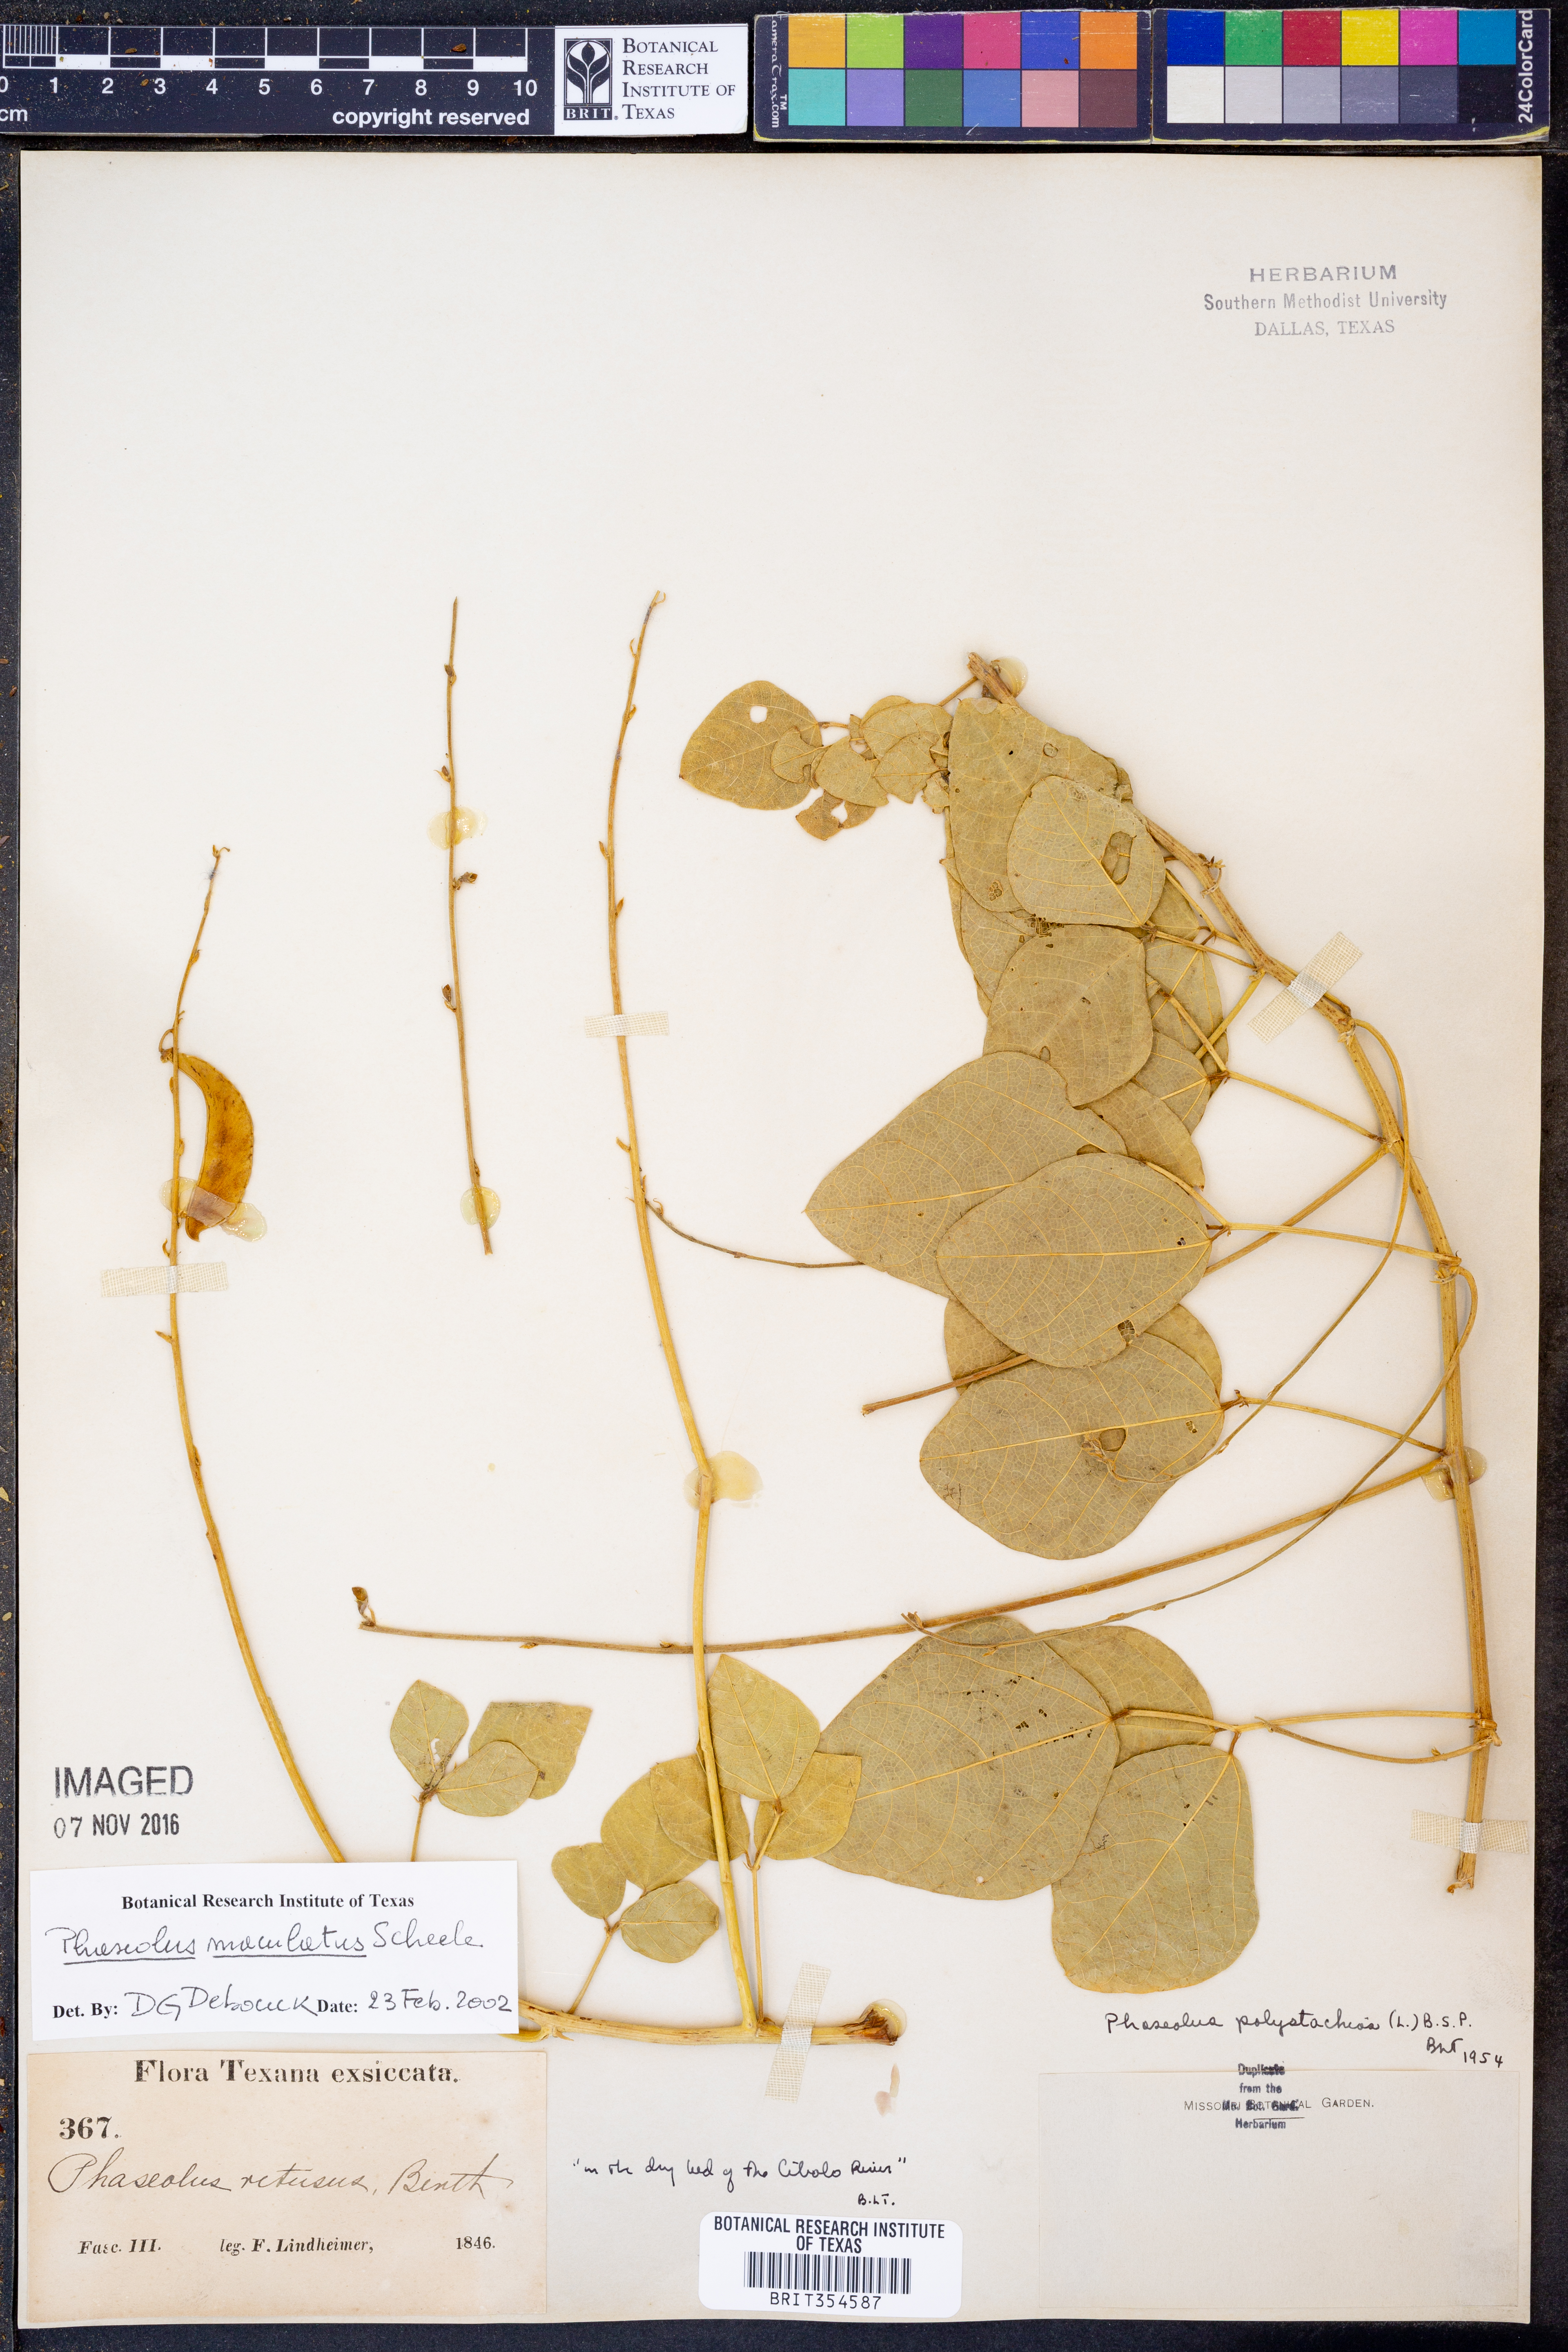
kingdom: Plantae
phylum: Tracheophyta
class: Magnoliopsida
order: Fabales
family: Fabaceae
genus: Phaseolus
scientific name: Phaseolus maculatus
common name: Metcalfe bean
